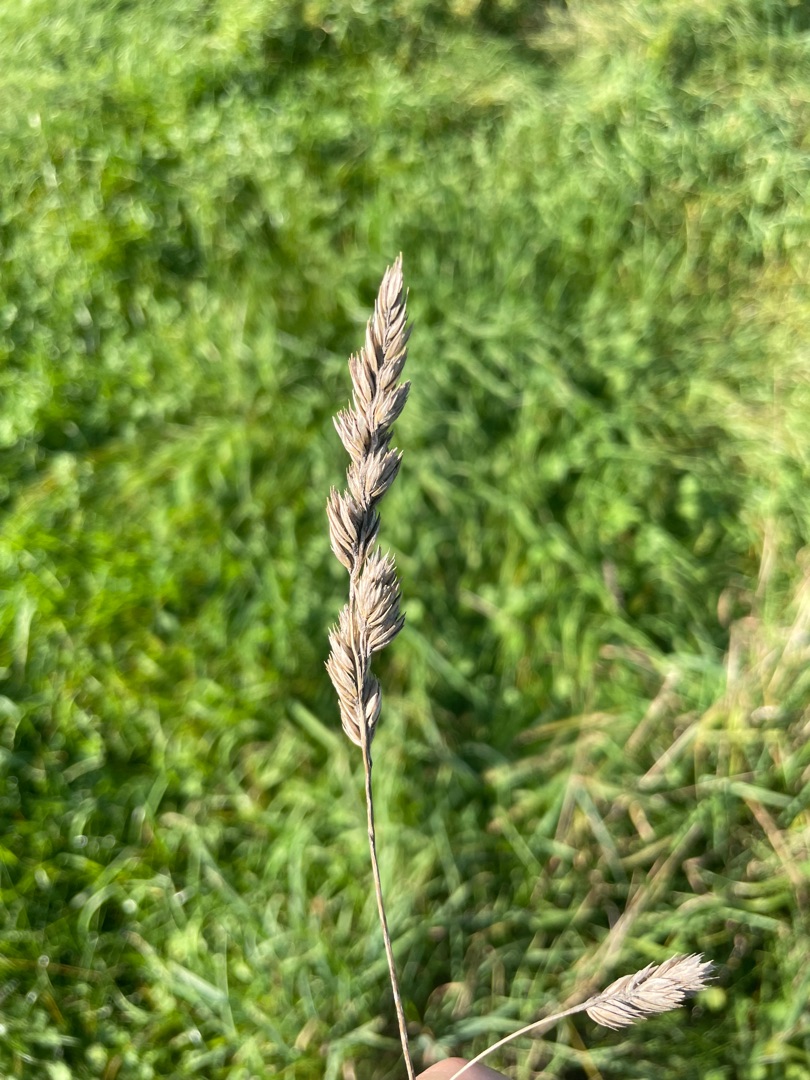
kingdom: Plantae
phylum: Tracheophyta
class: Liliopsida
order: Poales
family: Poaceae
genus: Dactylis
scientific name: Dactylis glomerata
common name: Almindelig hundegræs
